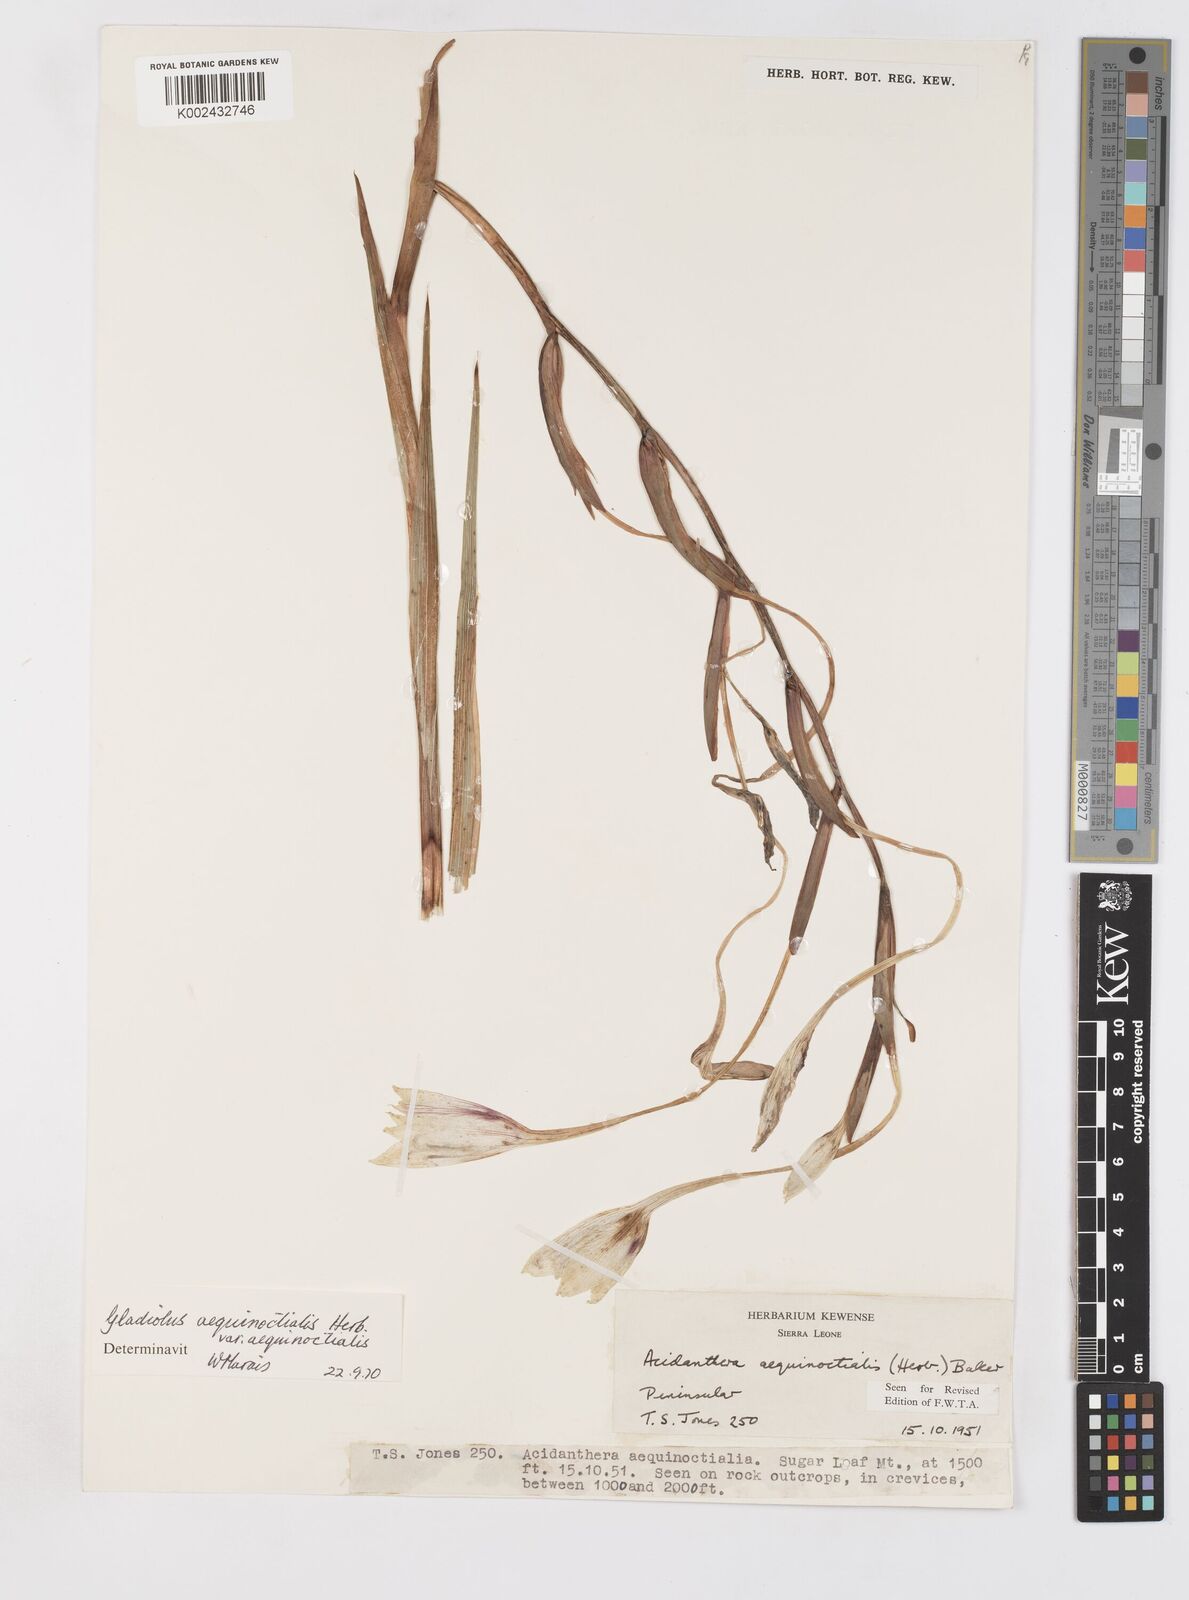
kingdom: Plantae
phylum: Tracheophyta
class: Liliopsida
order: Asparagales
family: Iridaceae
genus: Gladiolus
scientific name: Gladiolus aequinoctialis
